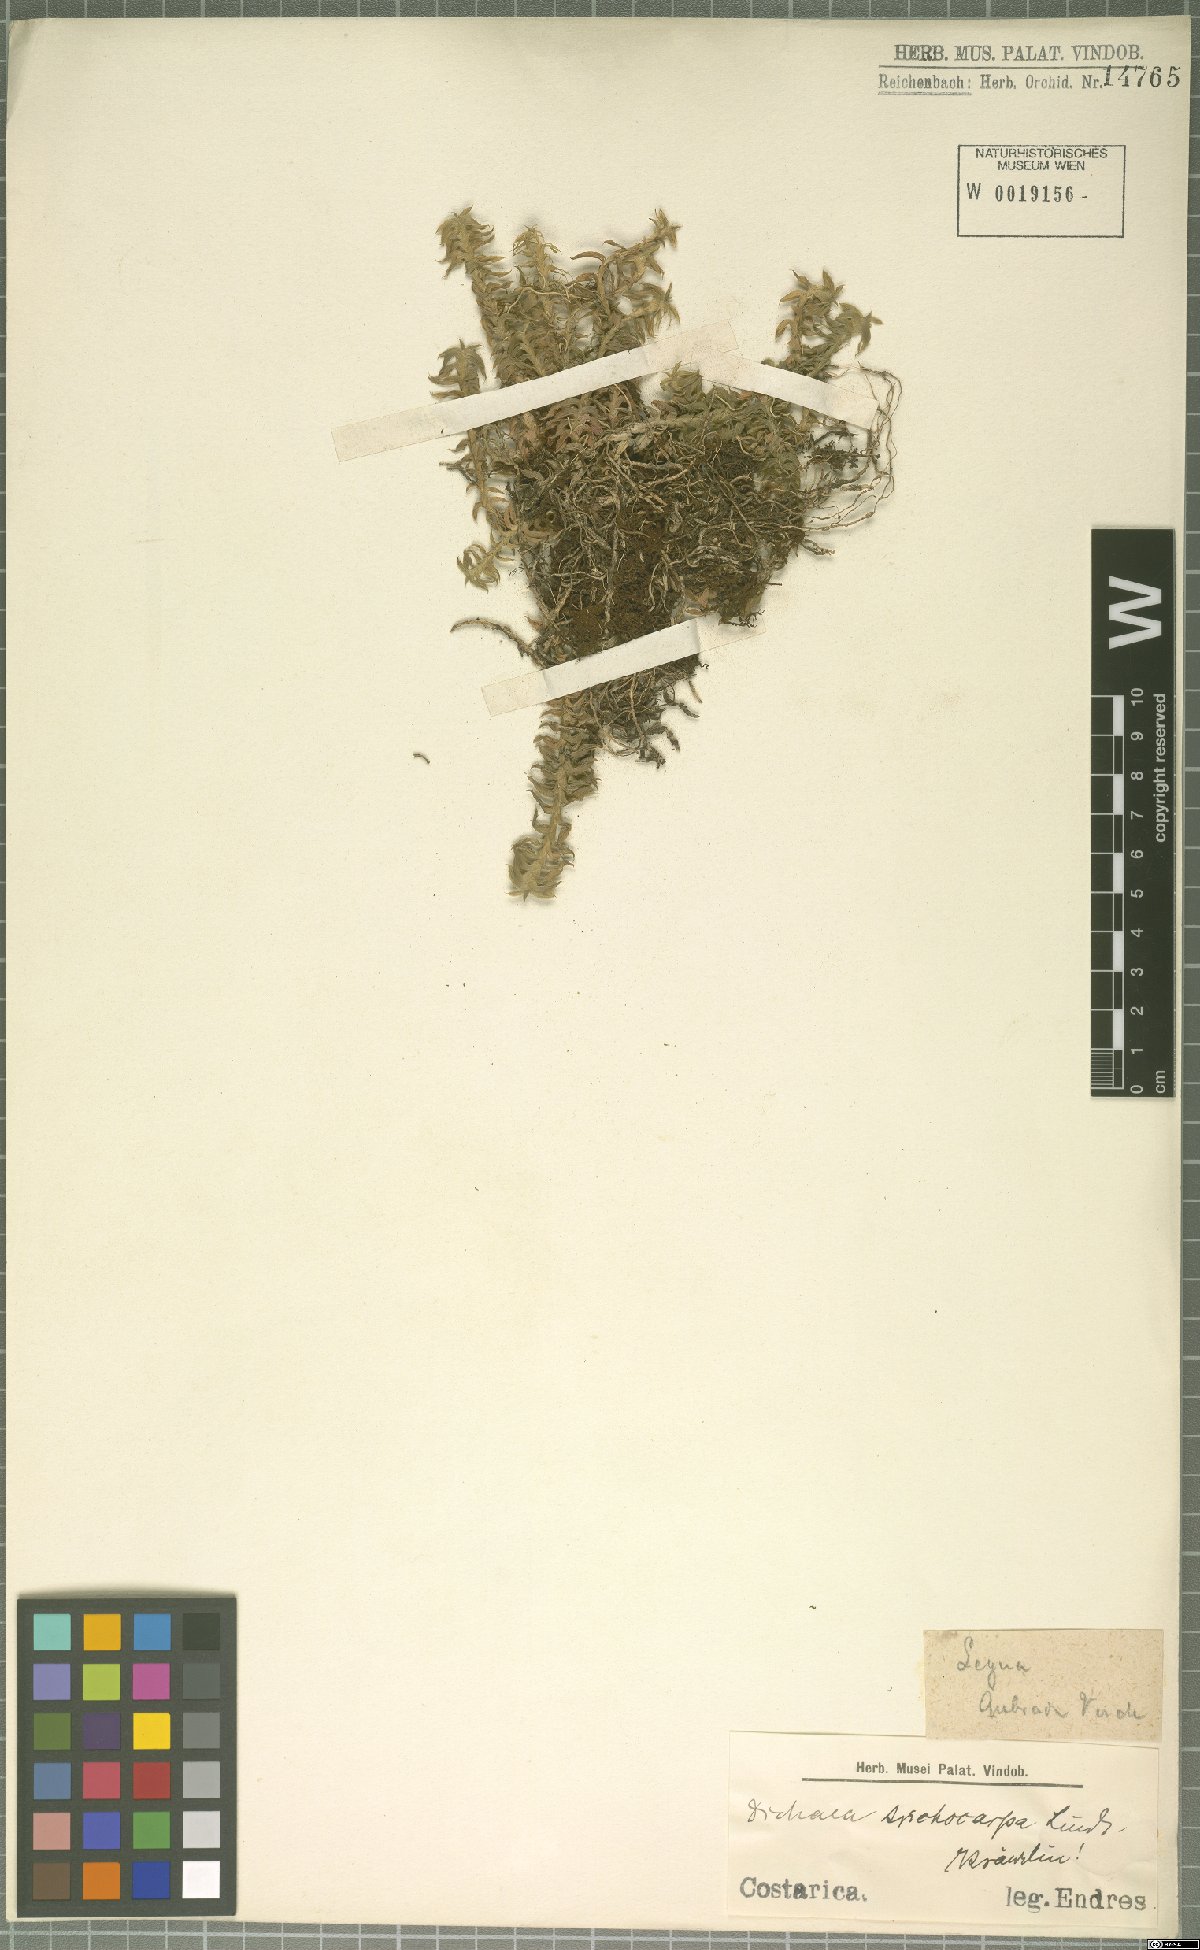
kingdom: Plantae
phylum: Tracheophyta
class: Liliopsida
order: Asparagales
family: Orchidaceae
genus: Dichaea
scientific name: Dichaea trichocarpa
